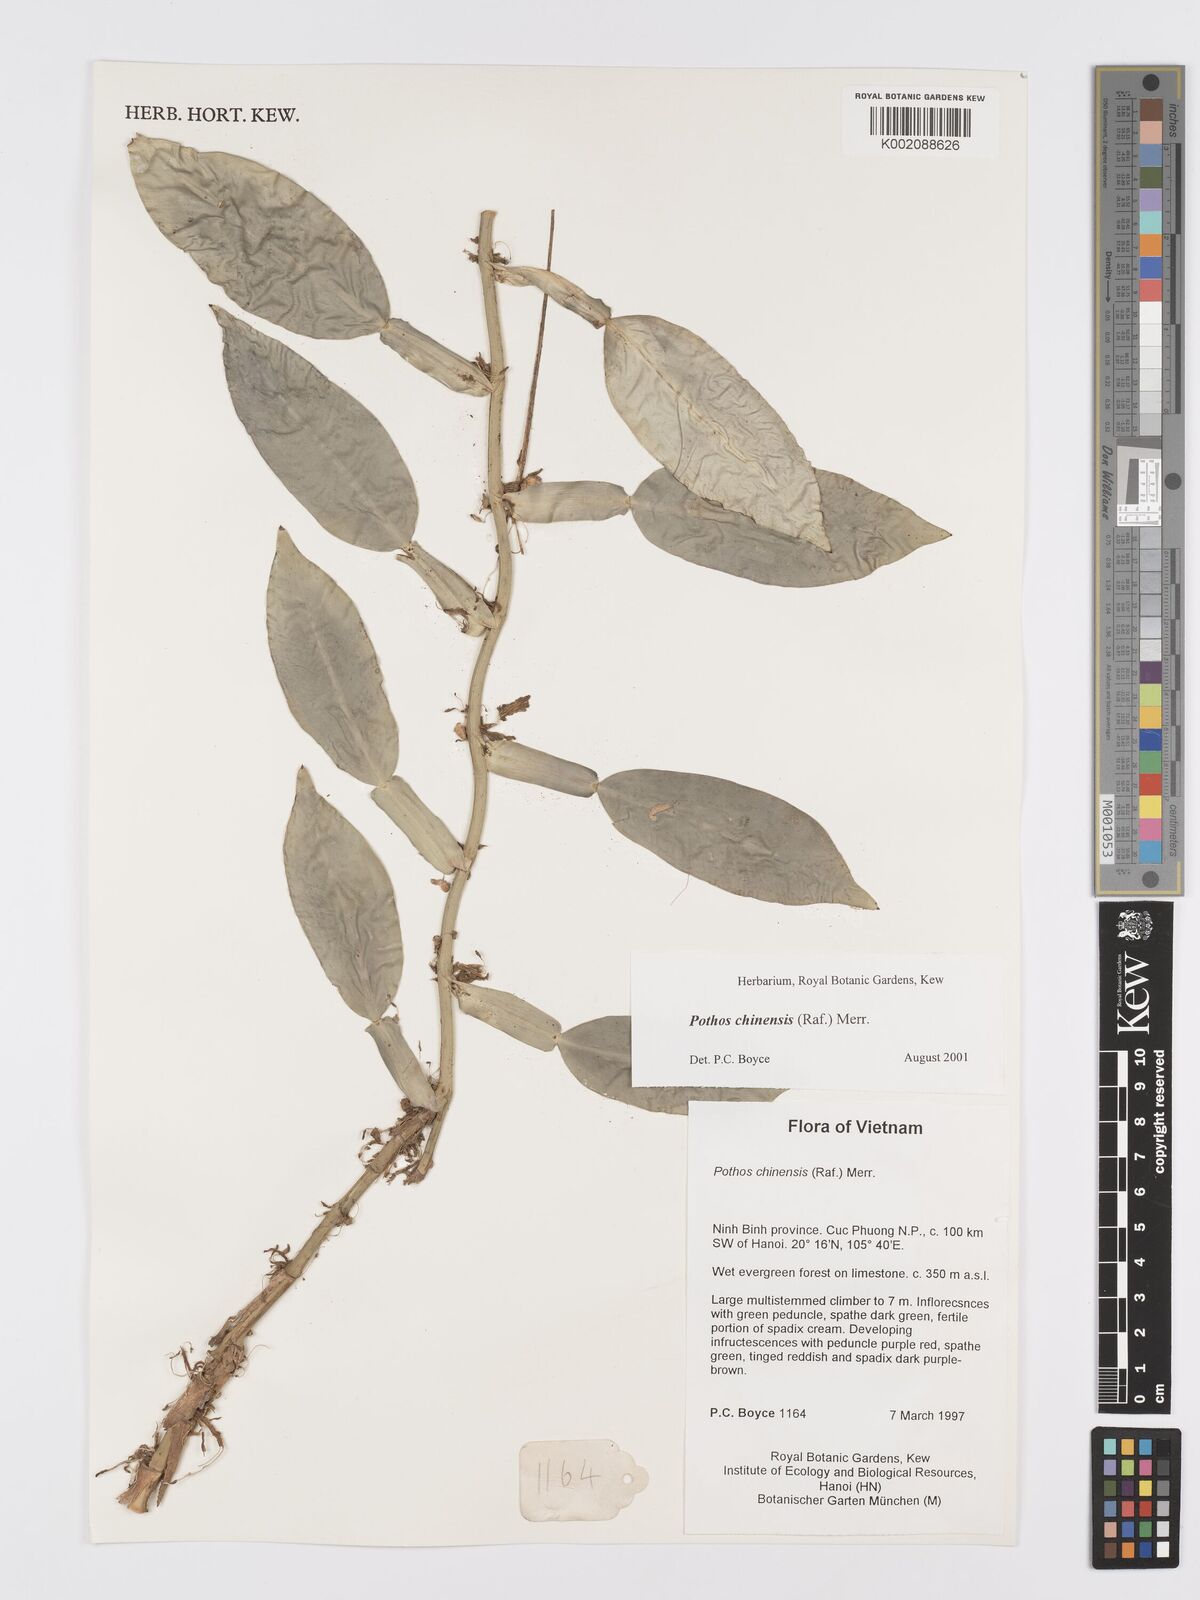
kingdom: Plantae
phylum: Tracheophyta
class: Liliopsida
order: Alismatales
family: Araceae
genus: Pothos
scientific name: Pothos chinensis
